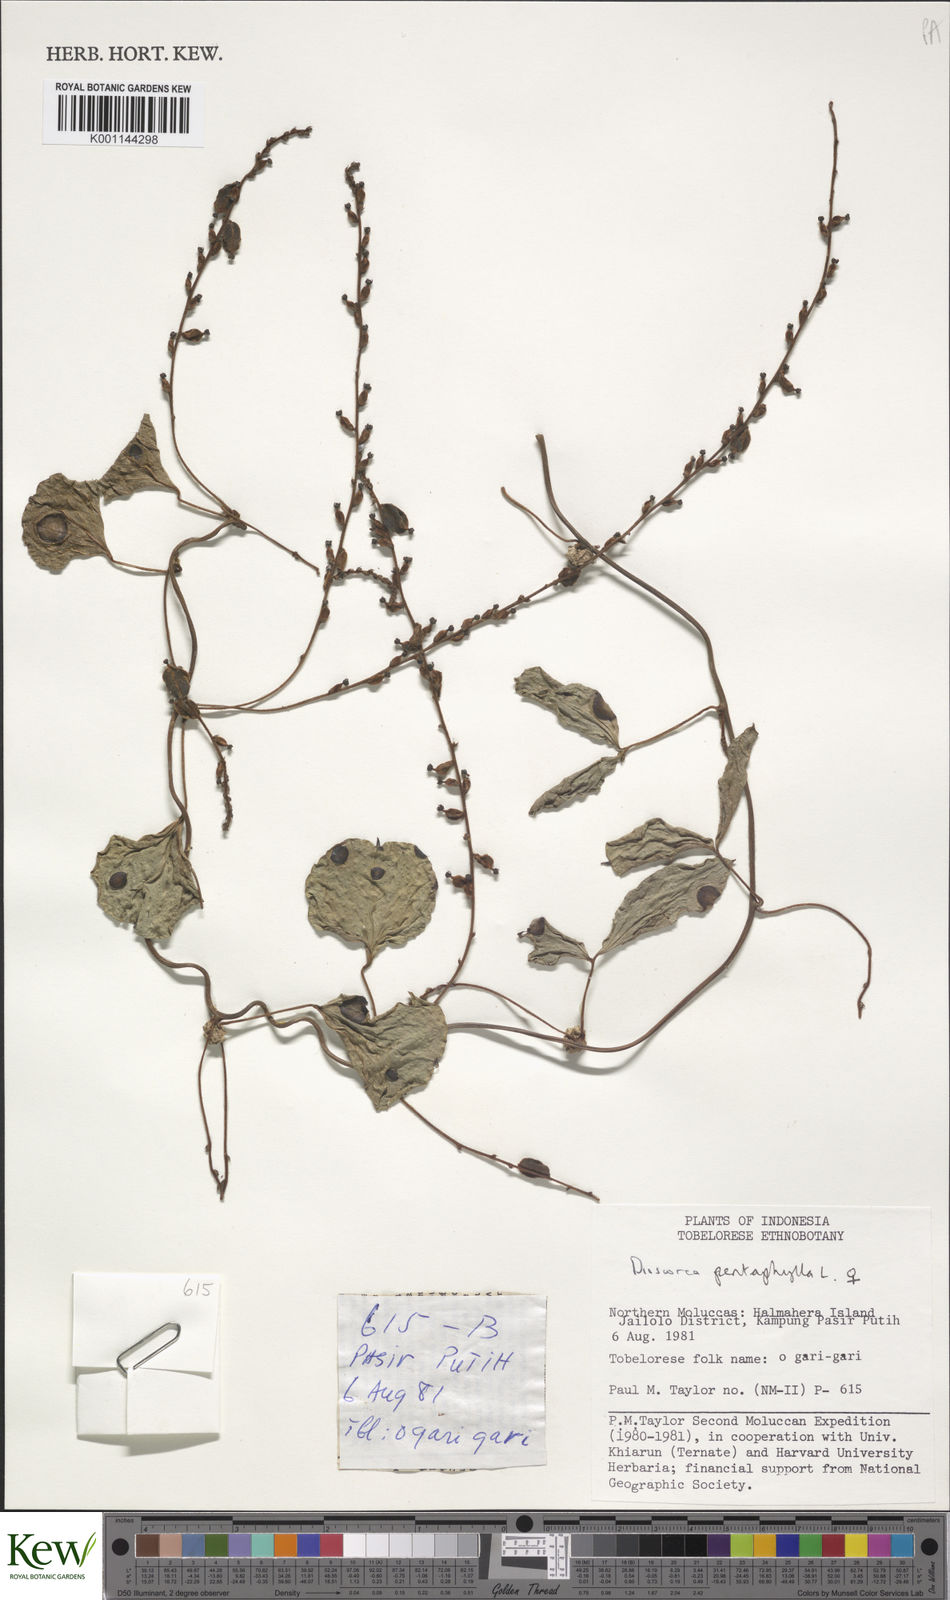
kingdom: Plantae
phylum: Tracheophyta
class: Liliopsida
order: Dioscoreales
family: Dioscoreaceae
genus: Dioscorea
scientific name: Dioscorea pentaphylla
